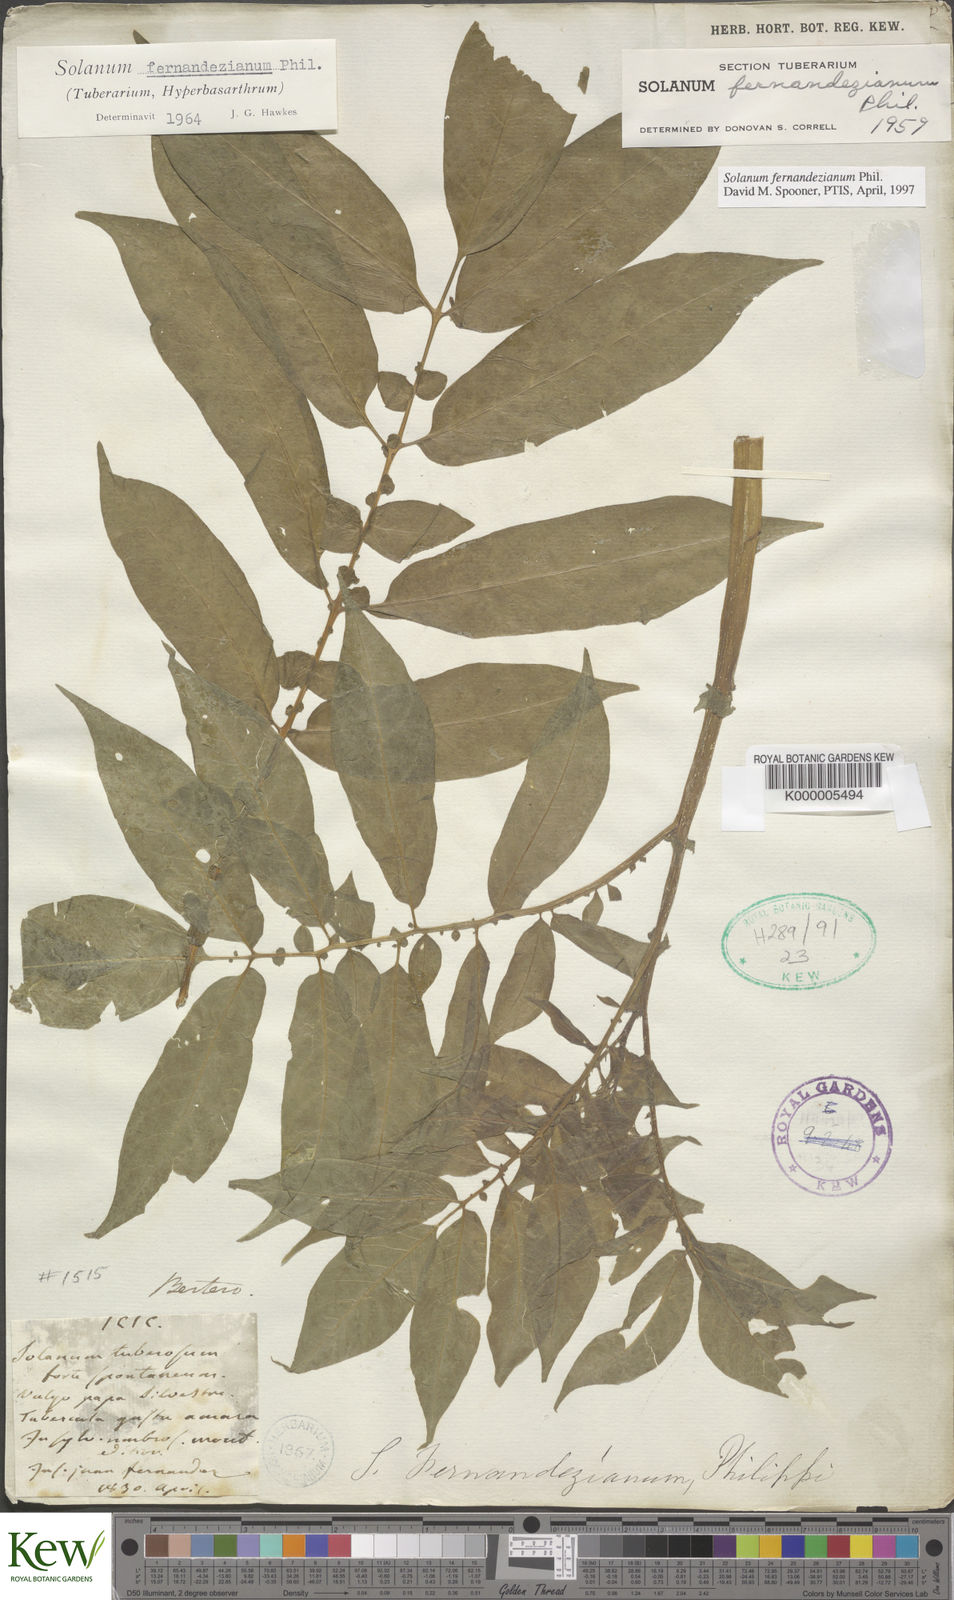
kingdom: Plantae
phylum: Tracheophyta
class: Magnoliopsida
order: Solanales
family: Solanaceae
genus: Solanum
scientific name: Solanum fernandezianum
